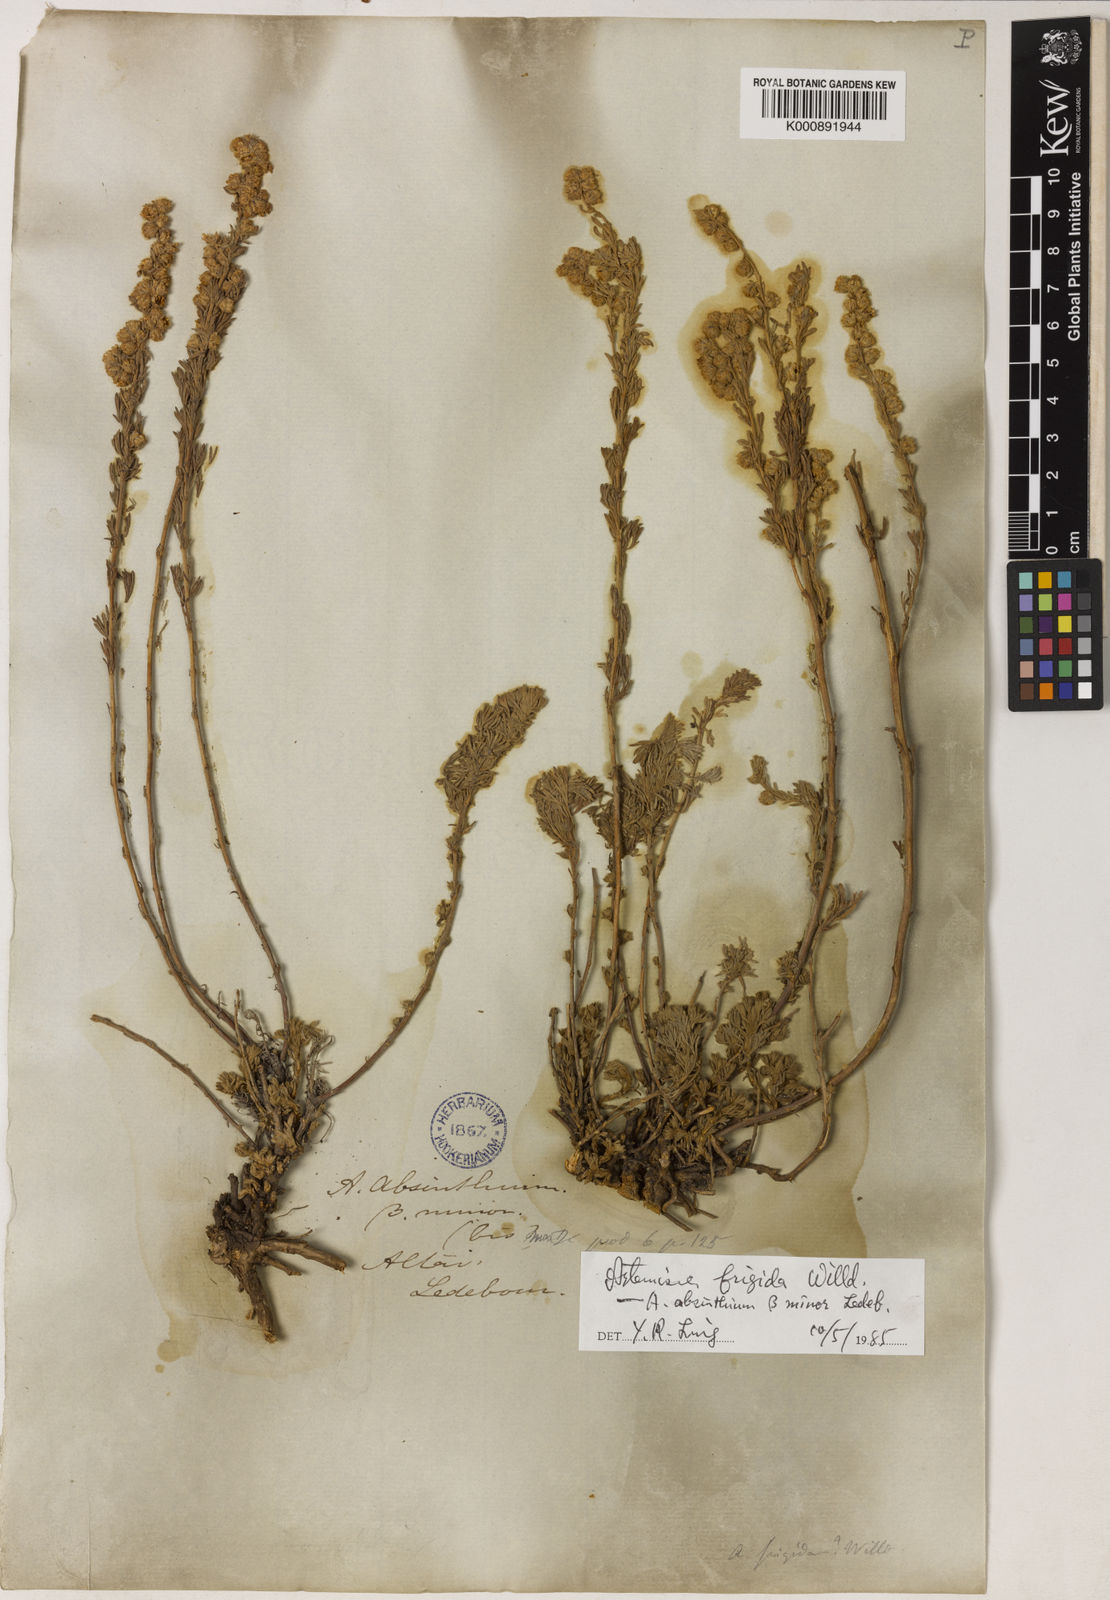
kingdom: Plantae
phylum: Tracheophyta
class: Magnoliopsida
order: Asterales
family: Asteraceae
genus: Artemisia
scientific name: Artemisia frigida
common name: Prairie sagewort
